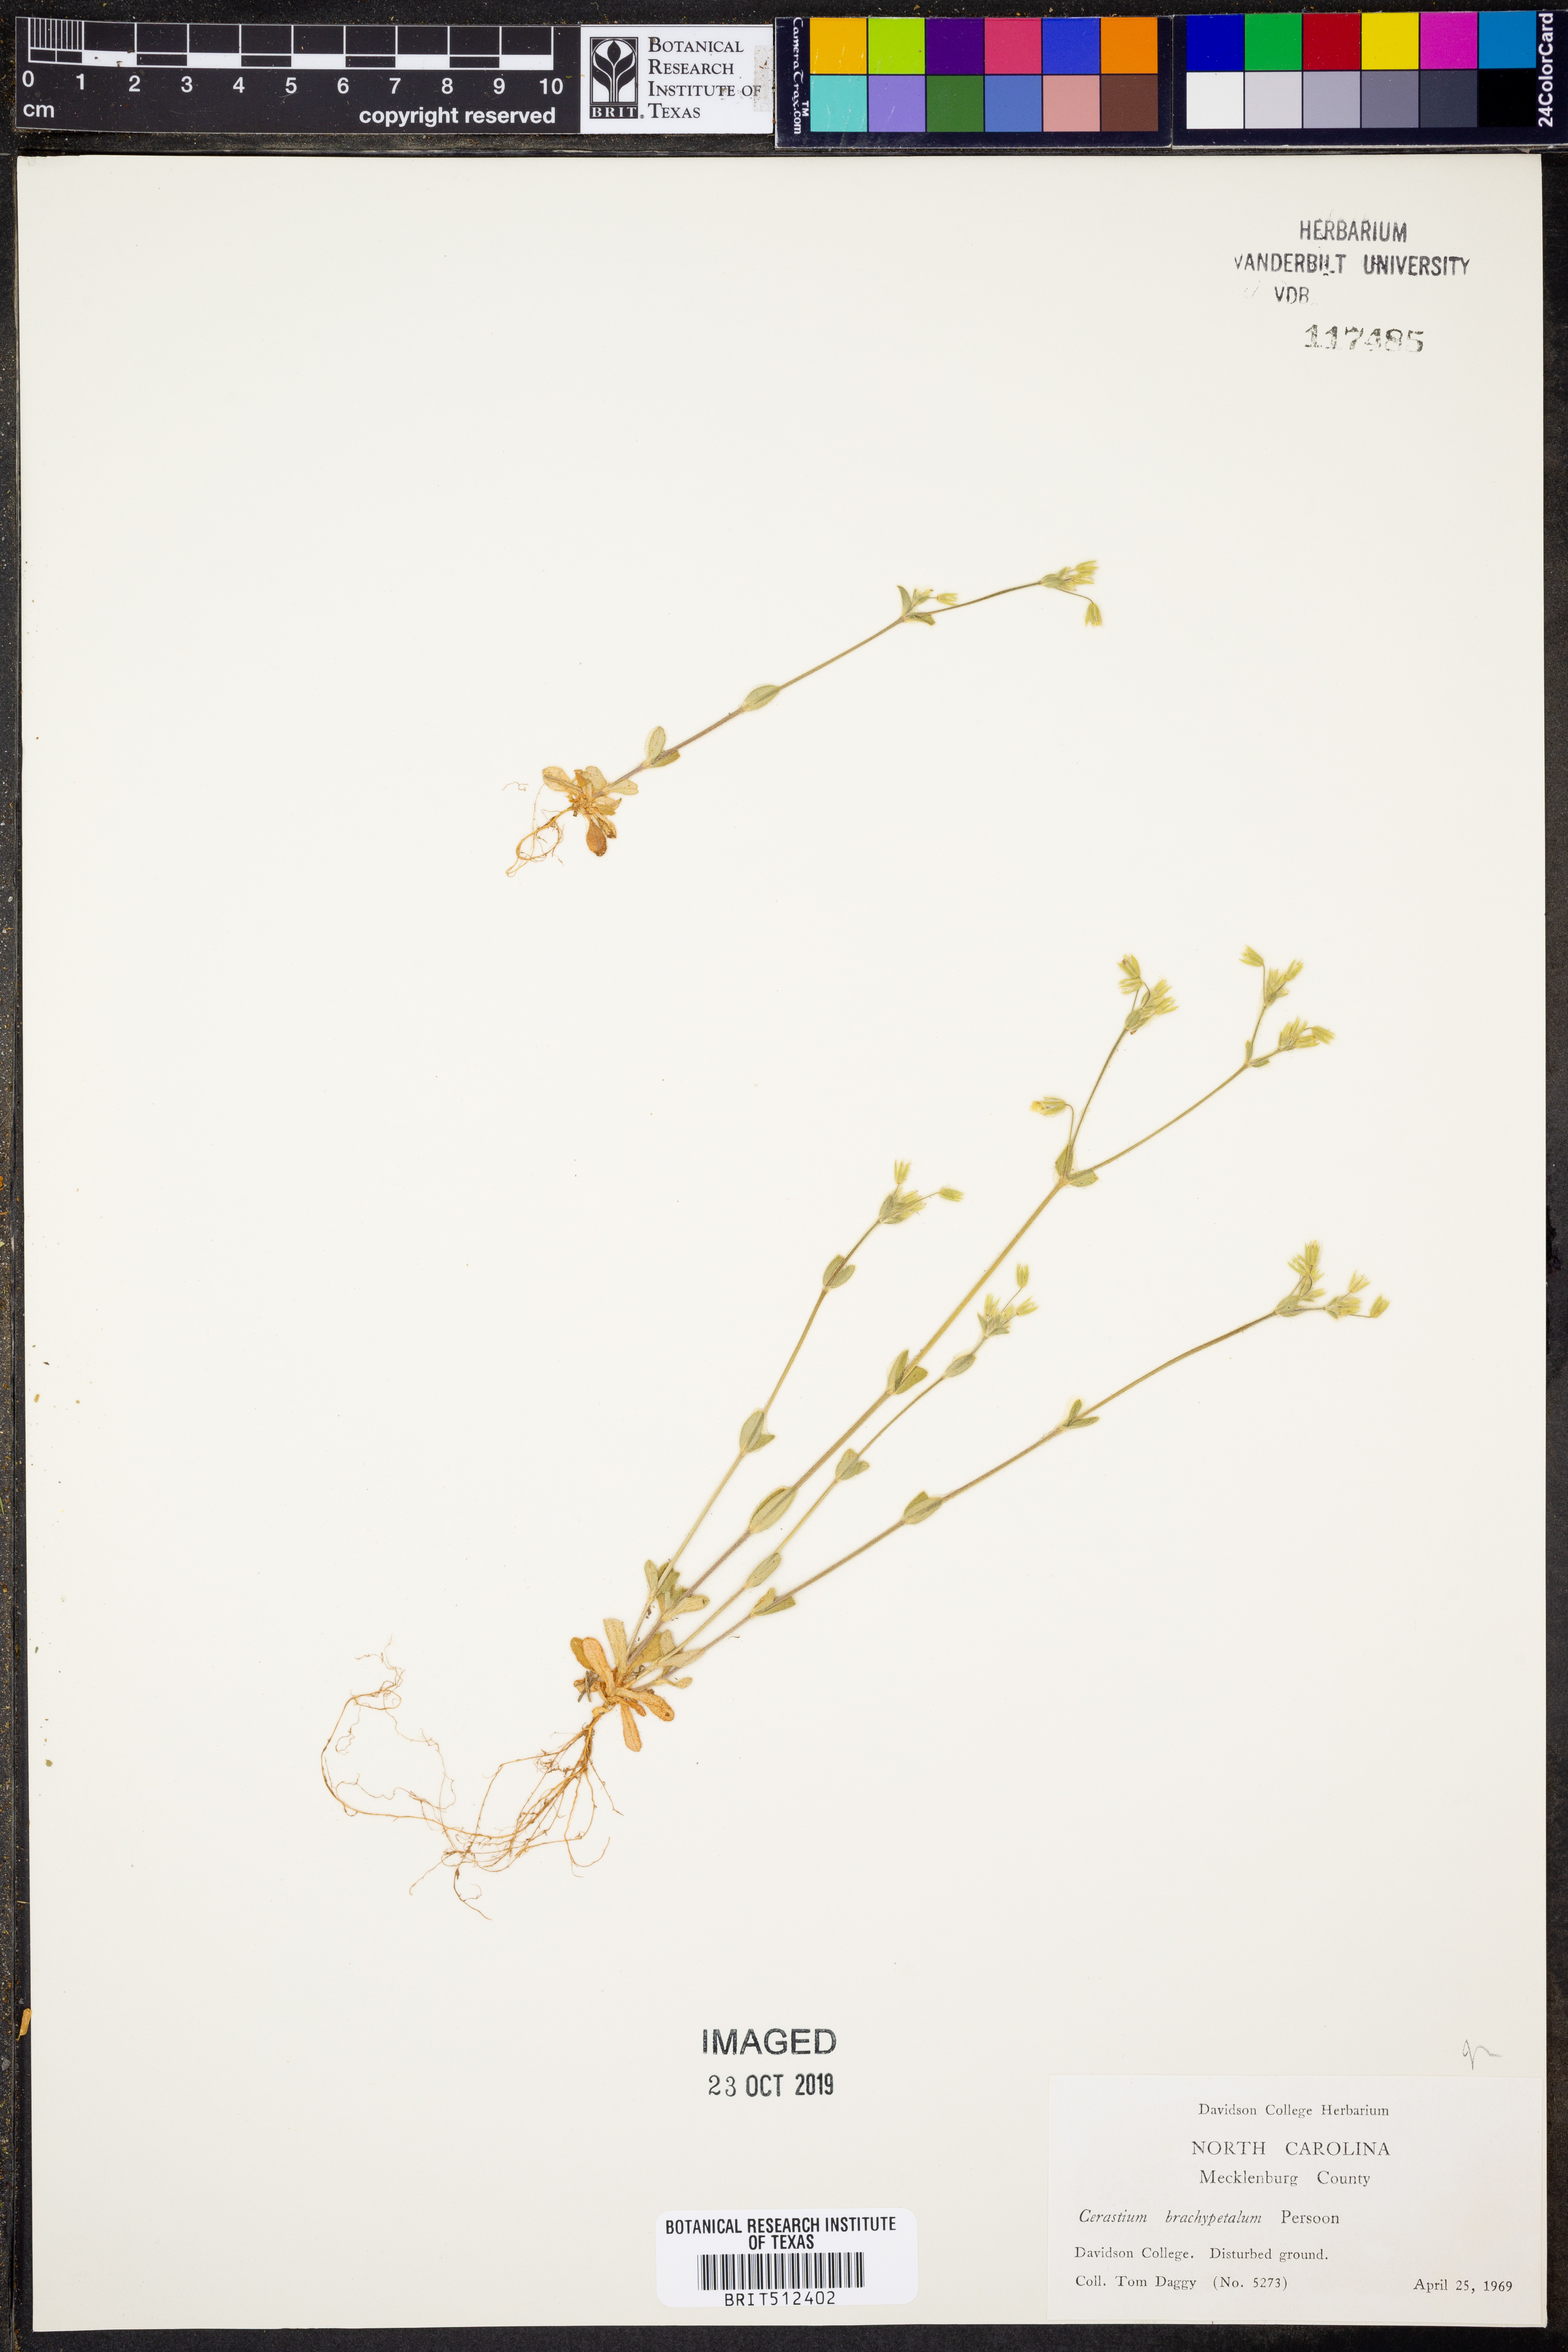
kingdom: Plantae
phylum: Tracheophyta
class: Magnoliopsida
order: Caryophyllales
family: Caryophyllaceae
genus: Cerastium
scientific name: Cerastium brachypetalum
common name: Grey mouse-ear
